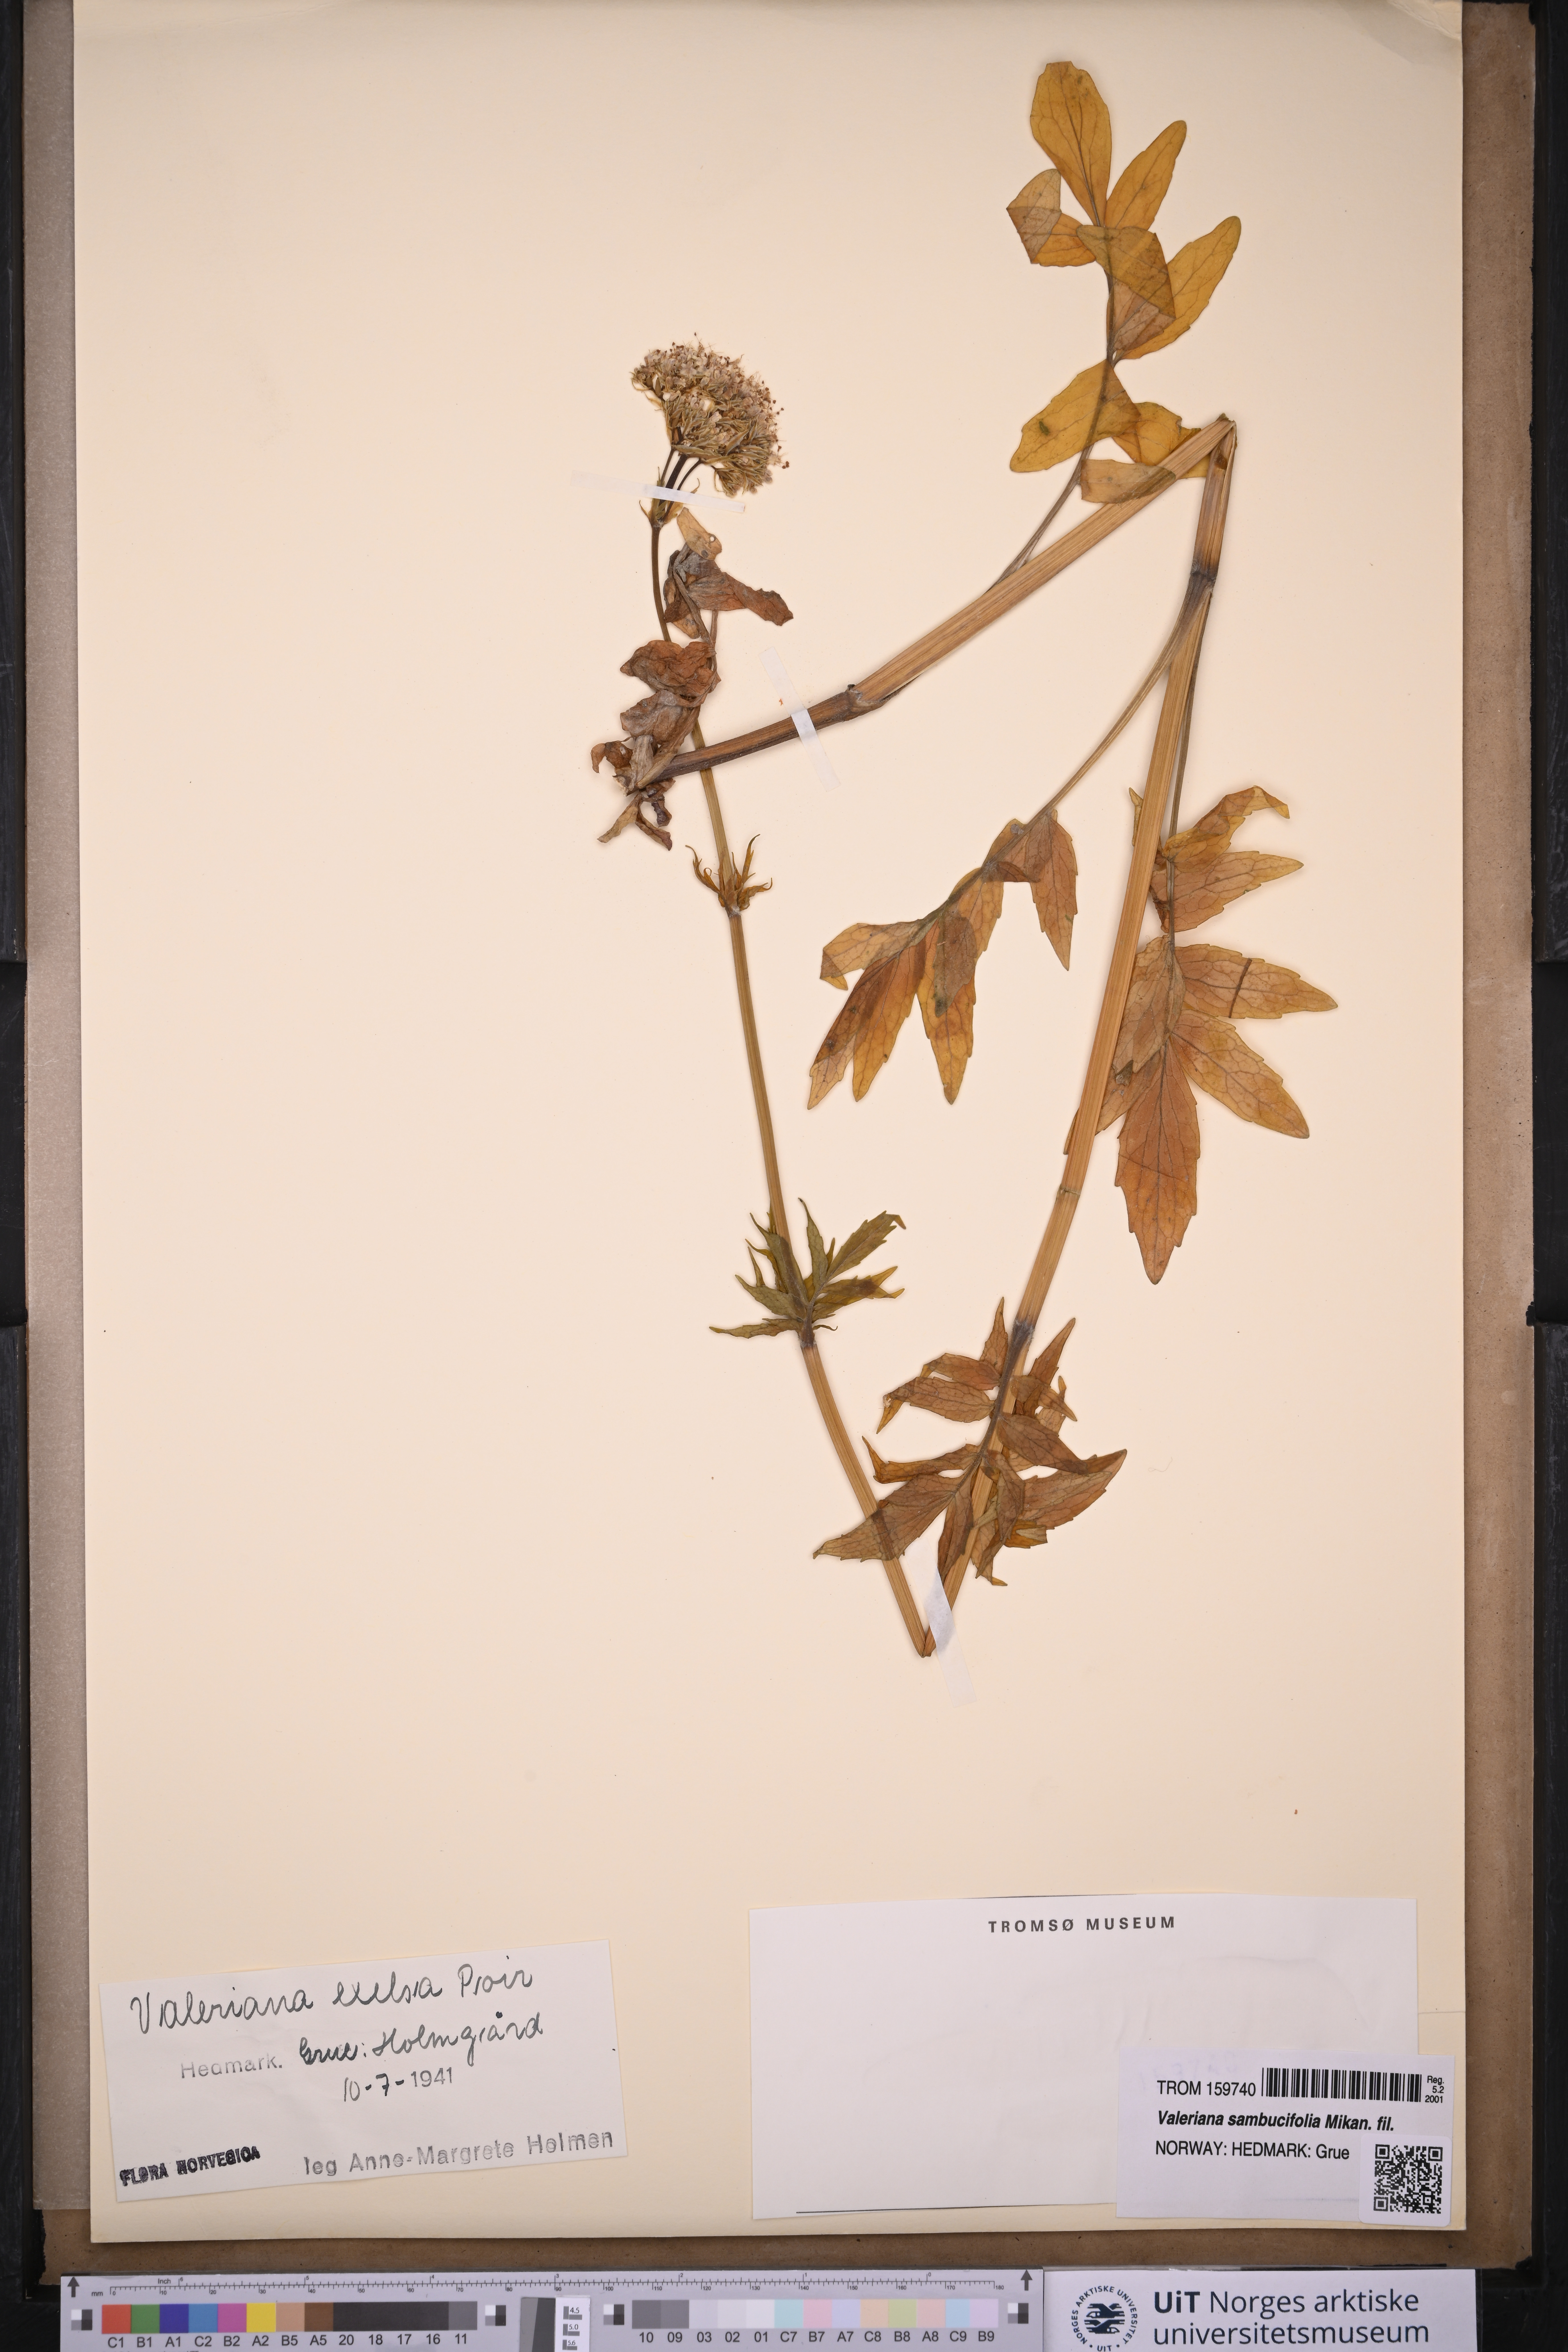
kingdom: Plantae
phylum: Tracheophyta
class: Magnoliopsida
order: Dipsacales
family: Caprifoliaceae
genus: Valeriana
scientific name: Valeriana sambucifolia
